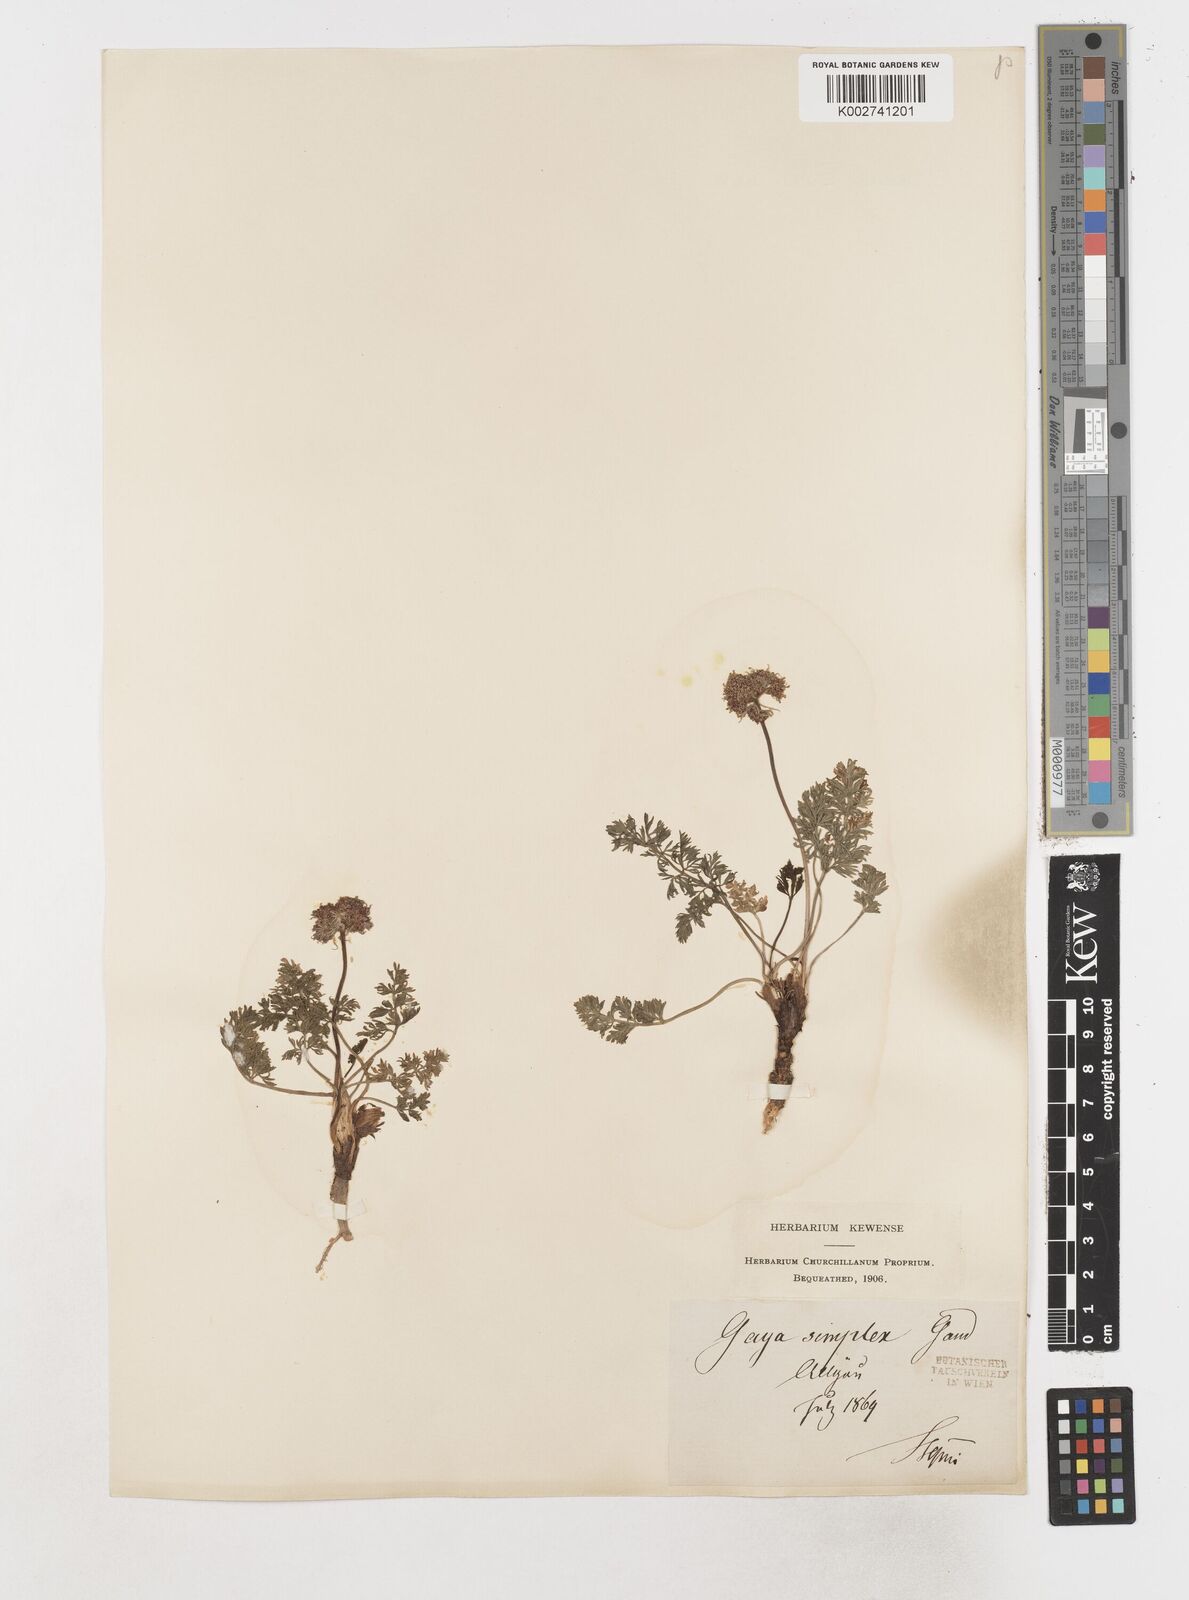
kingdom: Plantae
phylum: Tracheophyta
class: Magnoliopsida
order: Apiales
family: Apiaceae
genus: Pachypleurum
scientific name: Pachypleurum mutellinoides
